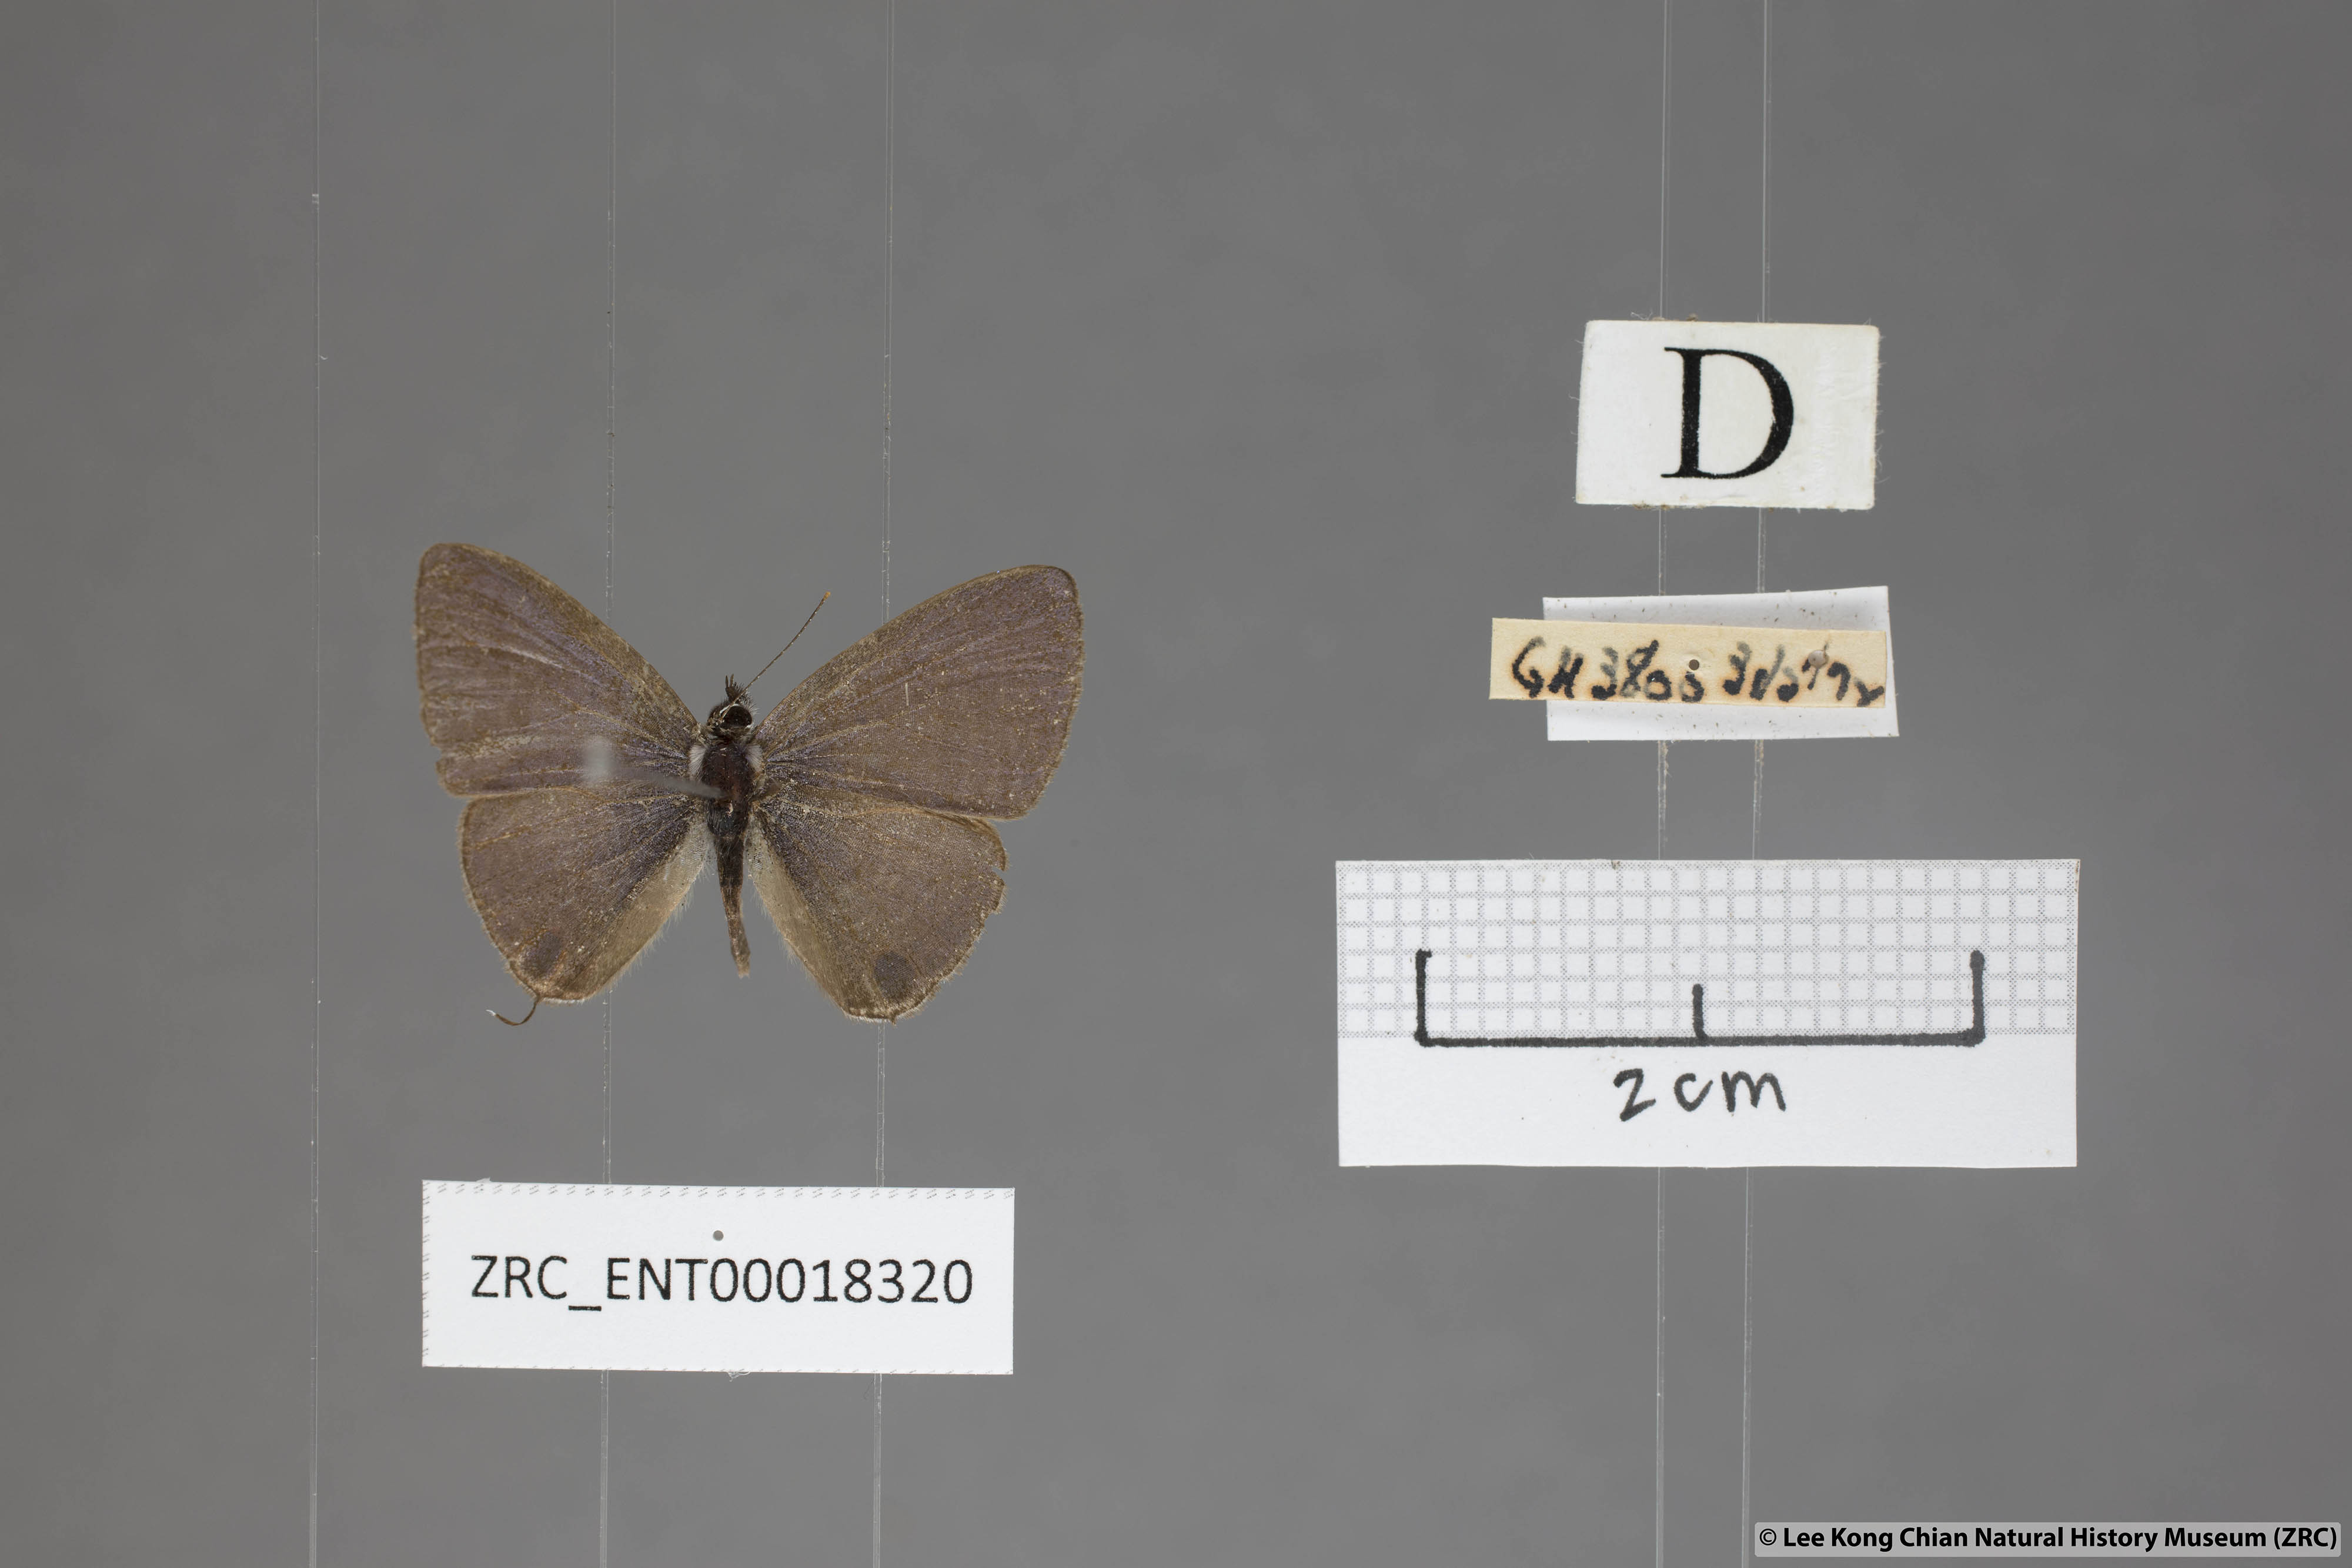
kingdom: Animalia
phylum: Arthropoda
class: Insecta
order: Lepidoptera
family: Lycaenidae
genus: Nacaduba
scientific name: Nacaduba beroe
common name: Opaque sixline blue
